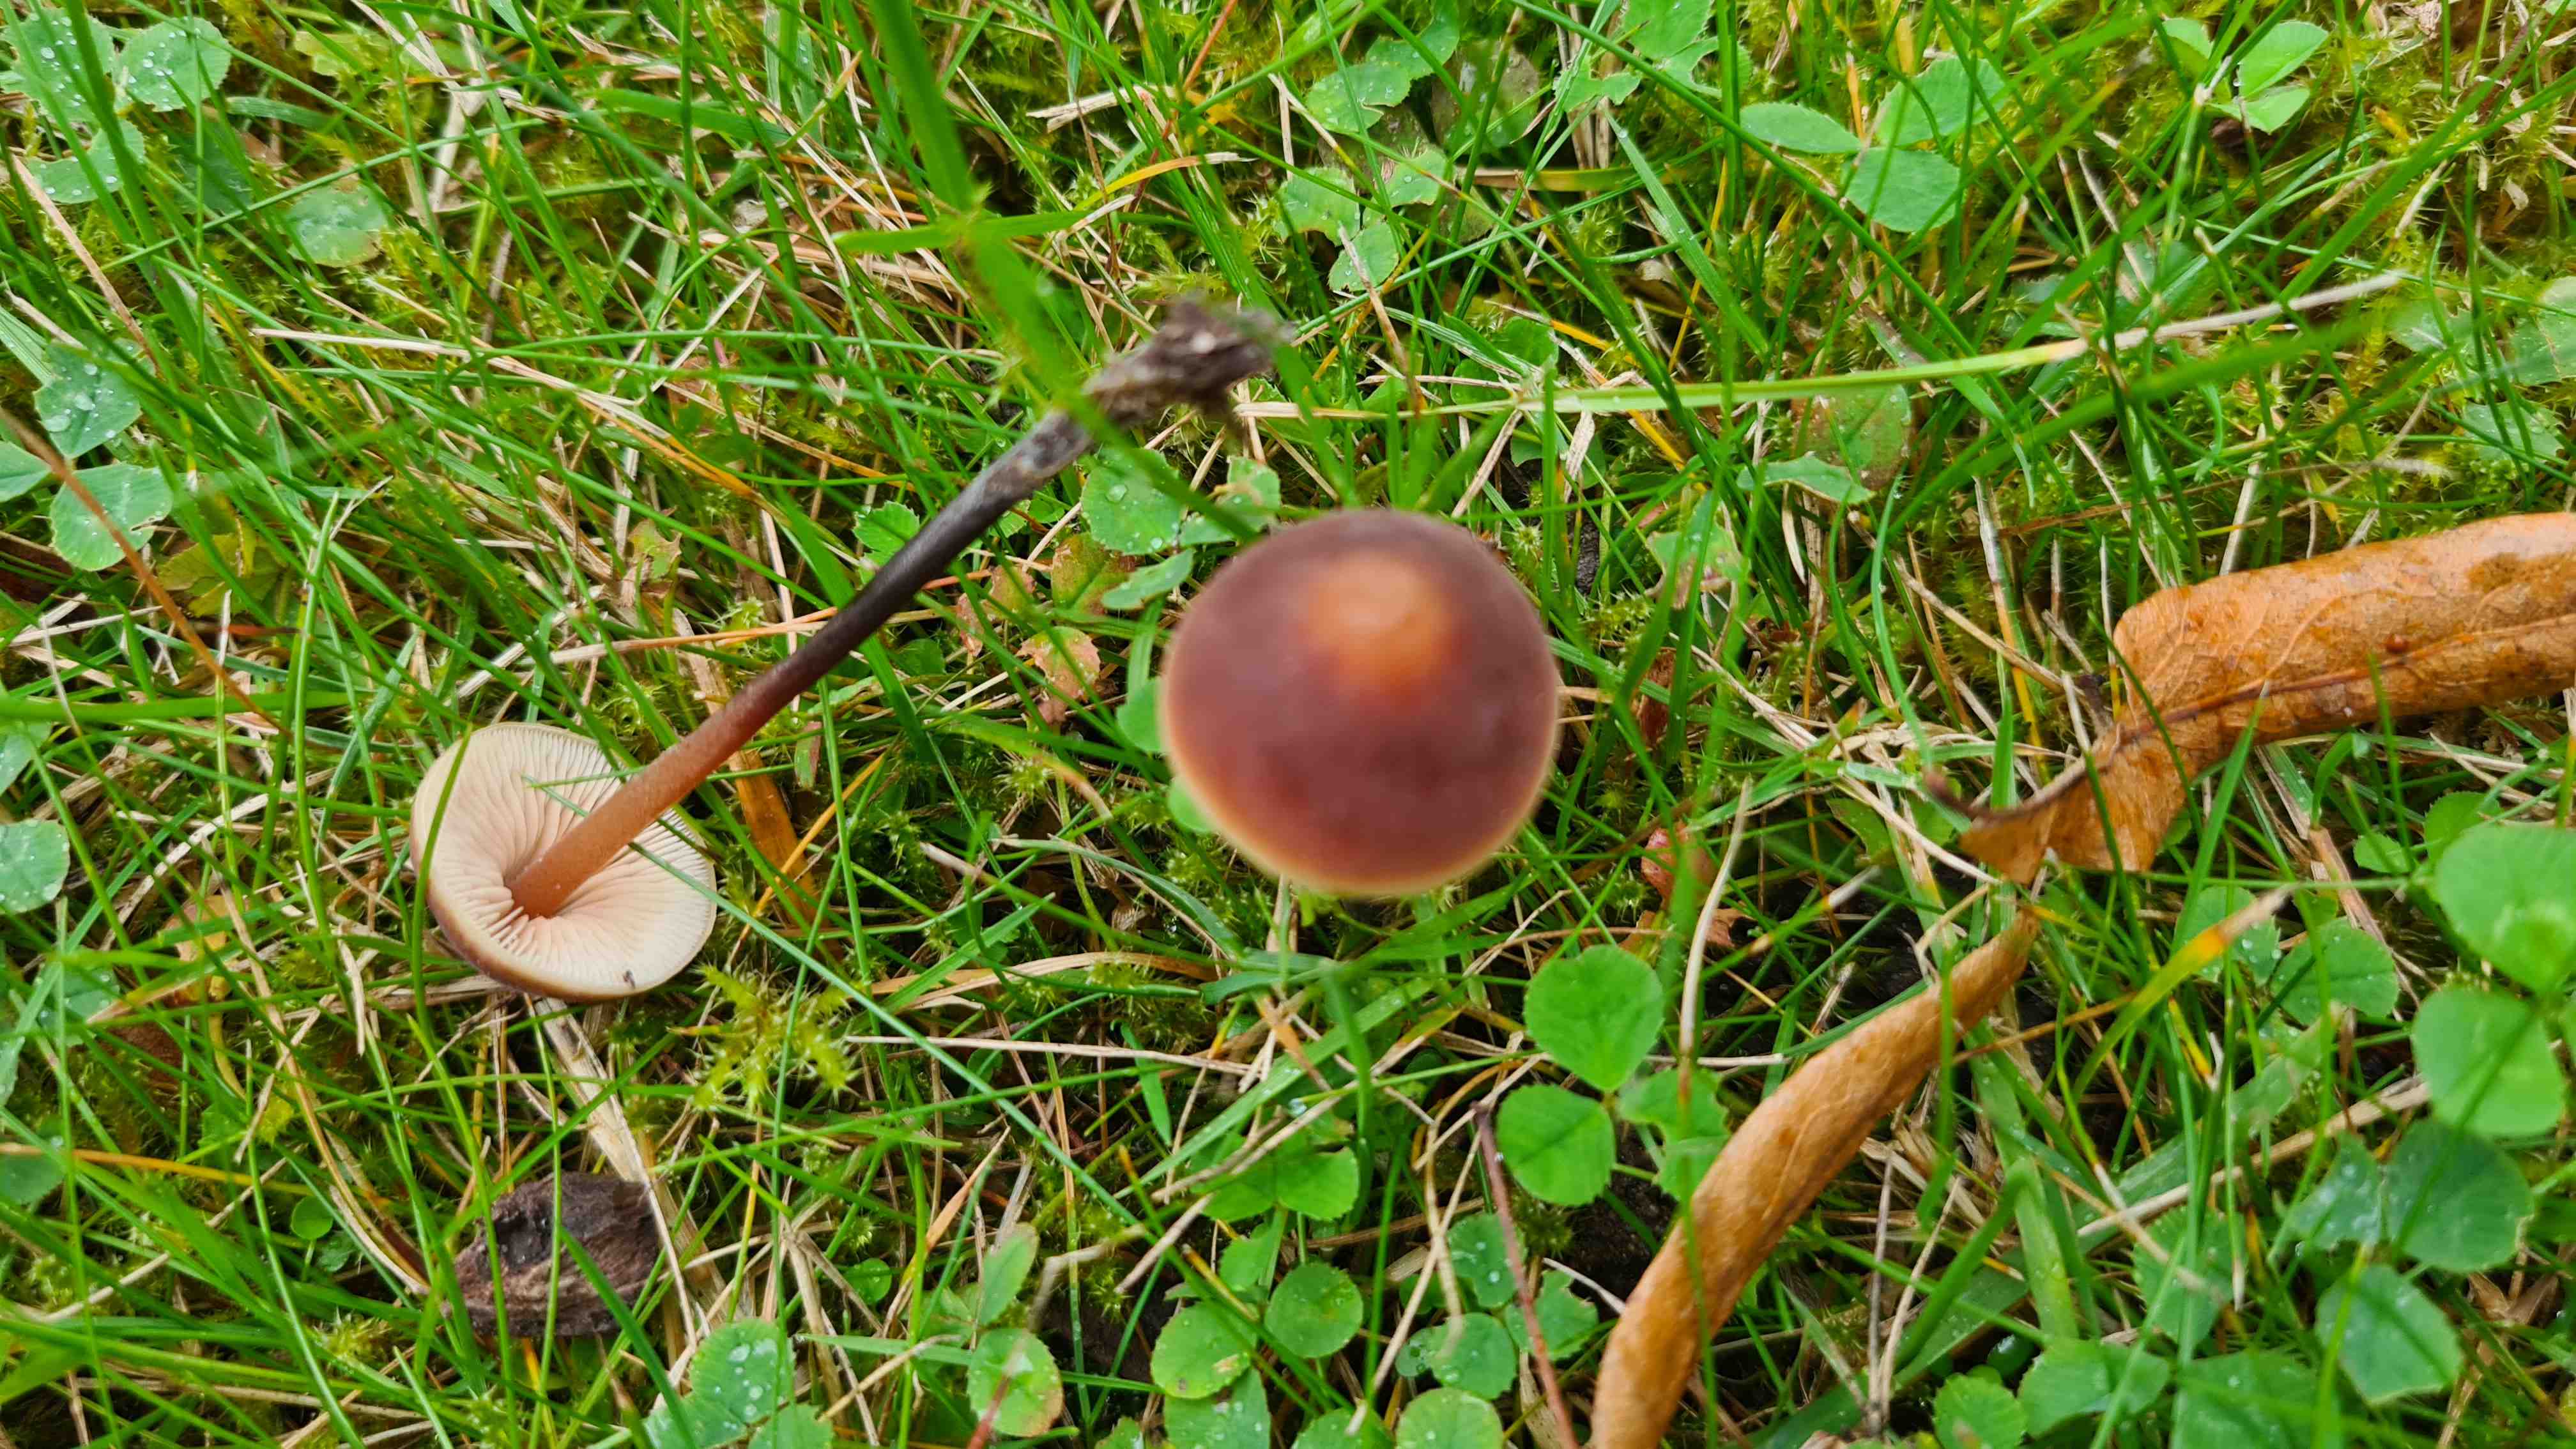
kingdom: Fungi
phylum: Basidiomycota
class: Agaricomycetes
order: Agaricales
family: Macrocystidiaceae
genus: Macrocystidia
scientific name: Macrocystidia cucumis
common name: agurkehat
